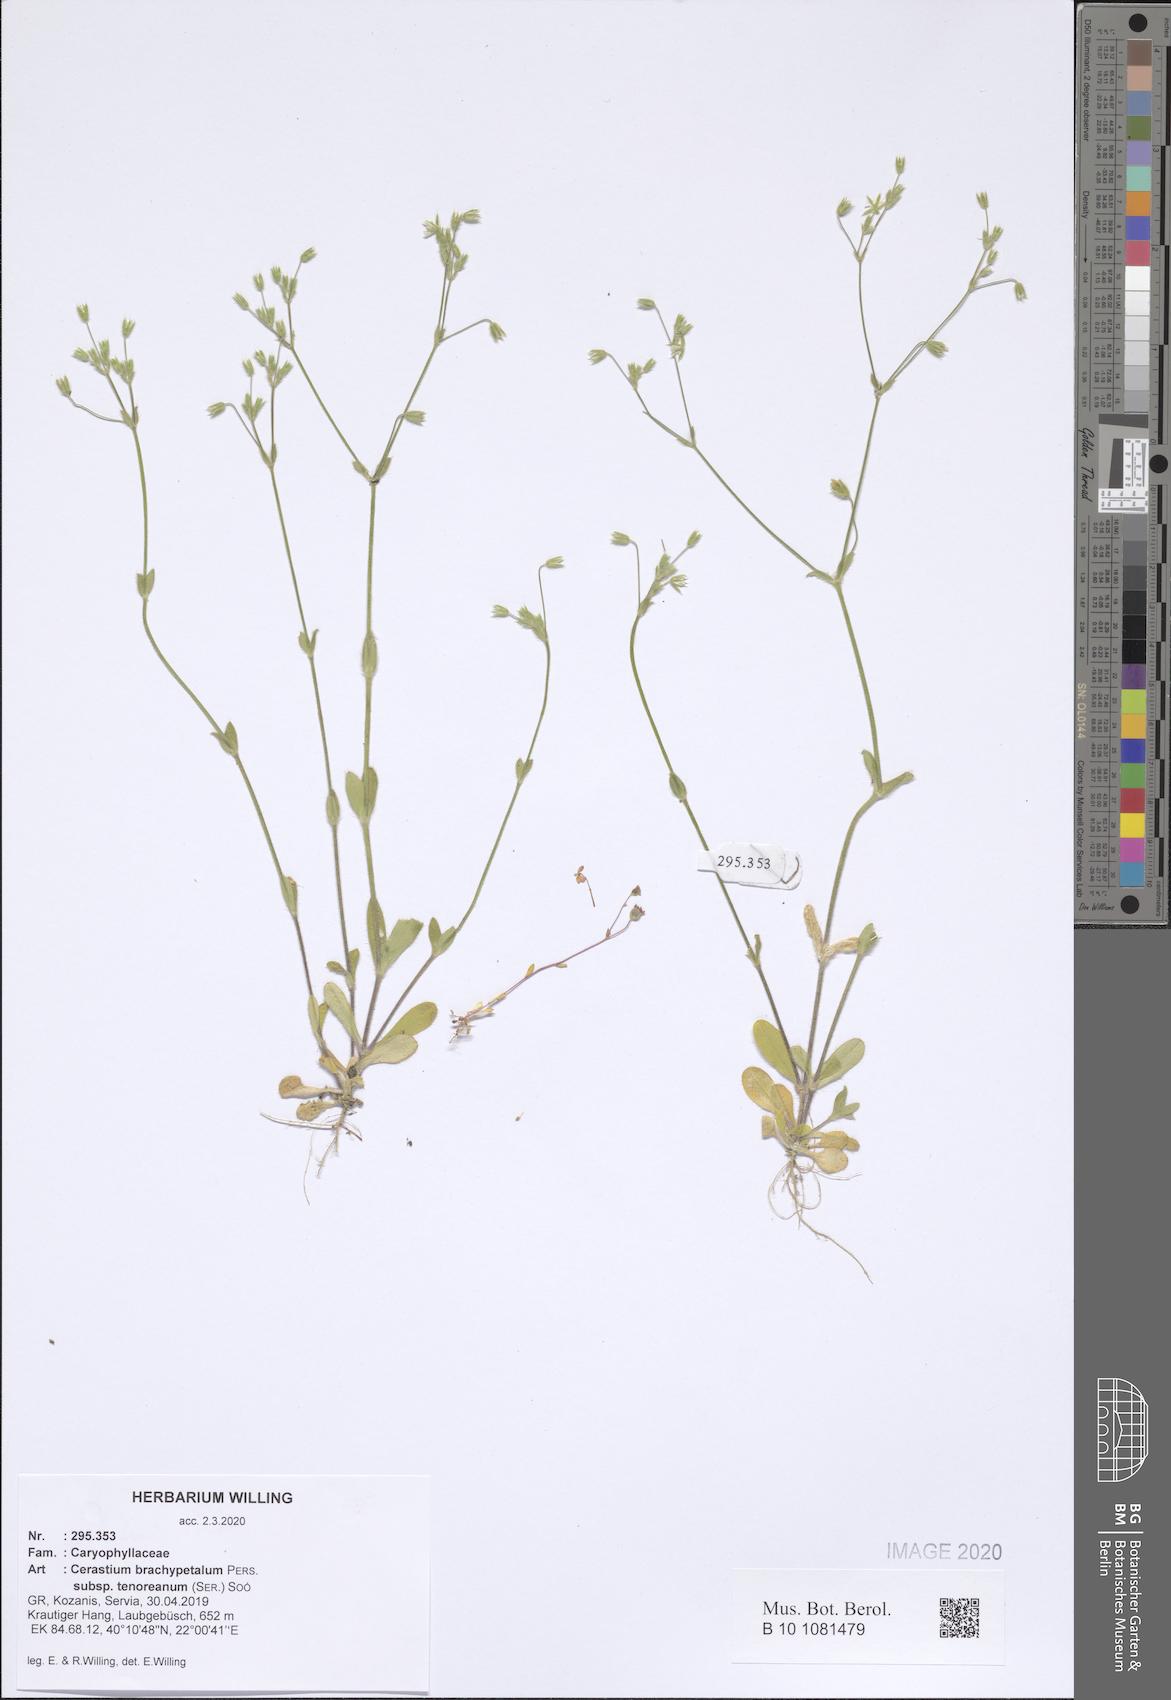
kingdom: Plantae
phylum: Tracheophyta
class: Magnoliopsida
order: Caryophyllales
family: Caryophyllaceae
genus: Cerastium
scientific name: Cerastium tenoreanum
